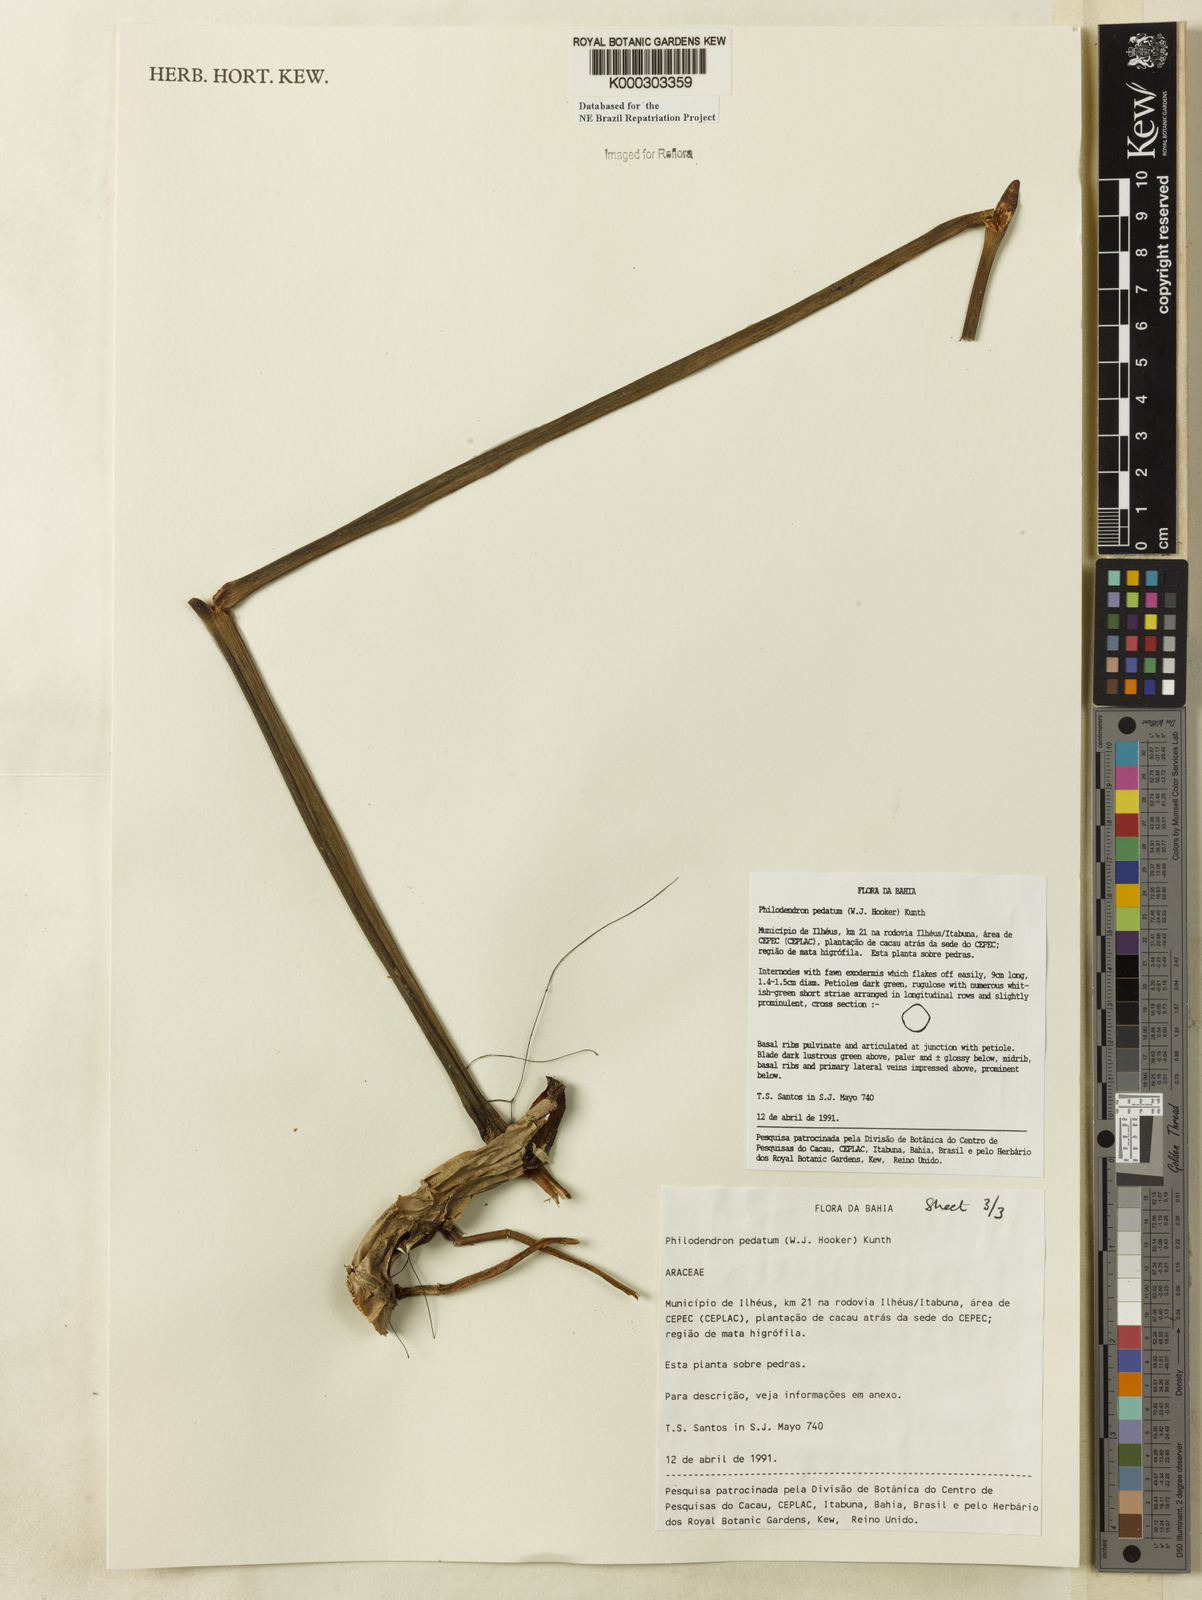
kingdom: Plantae
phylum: Tracheophyta
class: Liliopsida
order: Alismatales
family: Araceae
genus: Philodendron
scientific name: Philodendron pedatum
